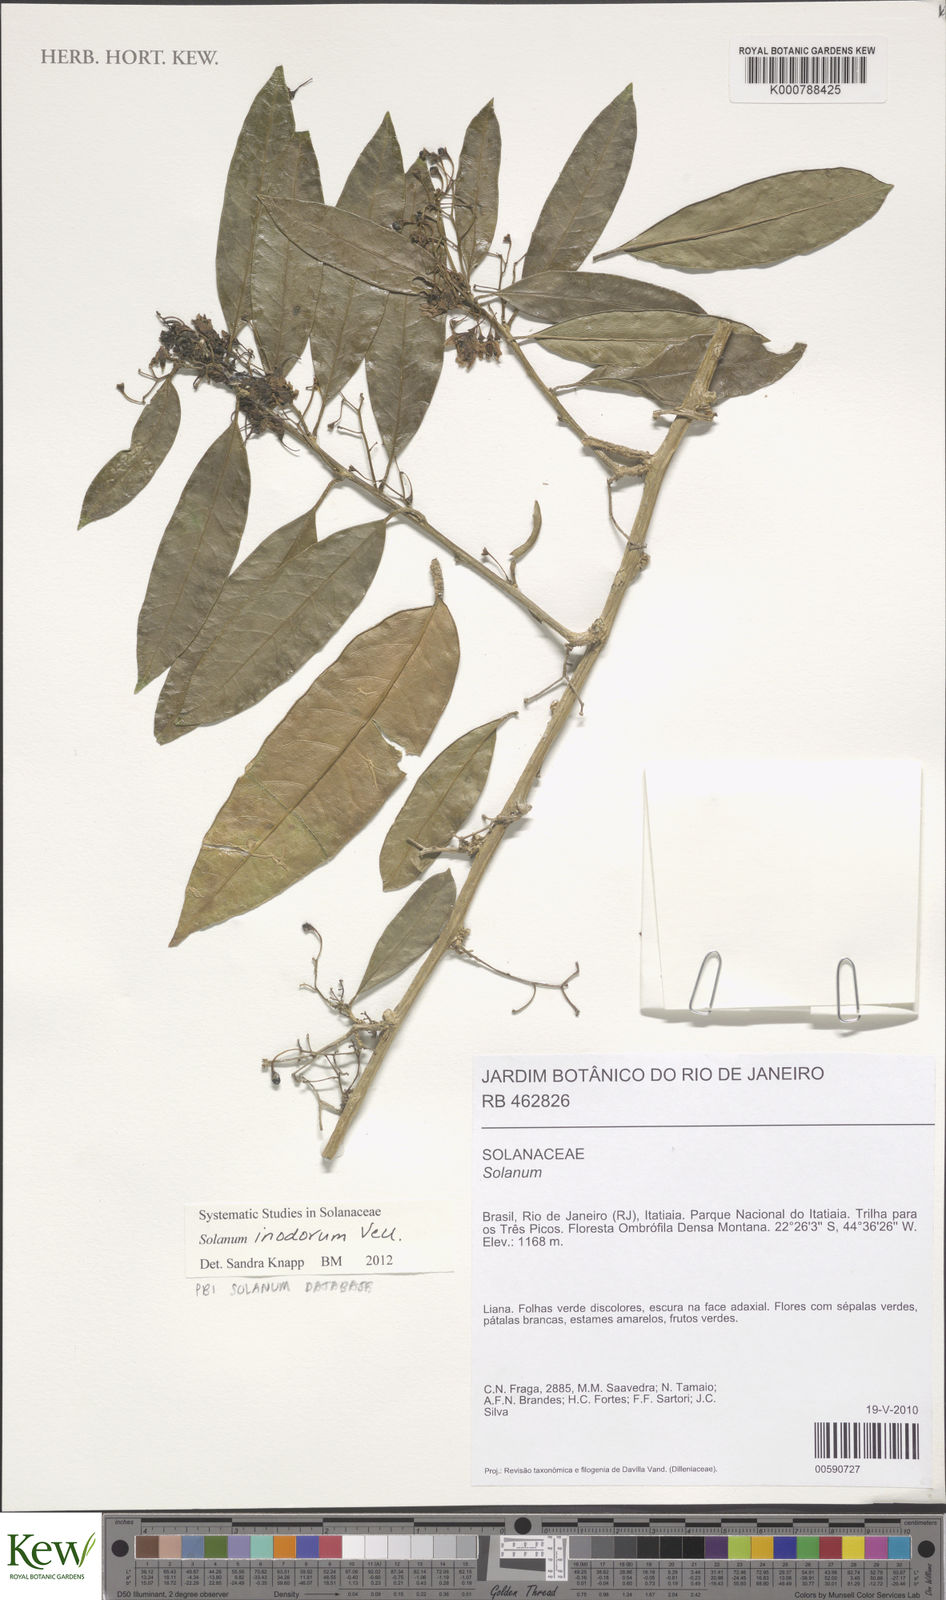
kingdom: Plantae
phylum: Tracheophyta
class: Magnoliopsida
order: Solanales
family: Solanaceae
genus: Solanum
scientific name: Solanum inodorum
